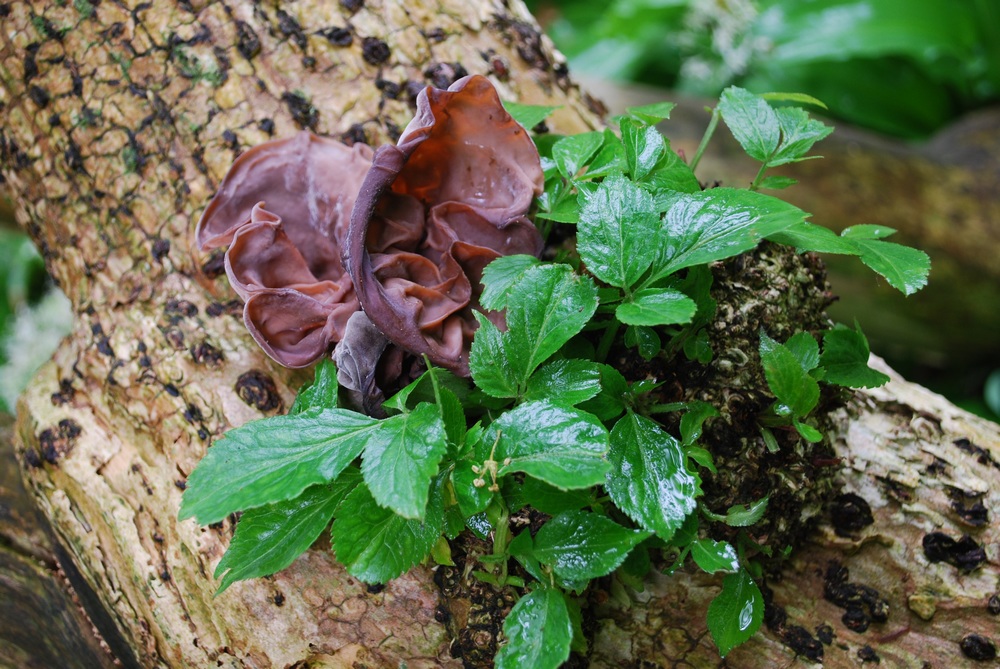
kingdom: Fungi
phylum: Basidiomycota
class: Agaricomycetes
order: Auriculariales
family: Auriculariaceae
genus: Auricularia
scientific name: Auricularia auricula-judae
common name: almindelig judasøre
